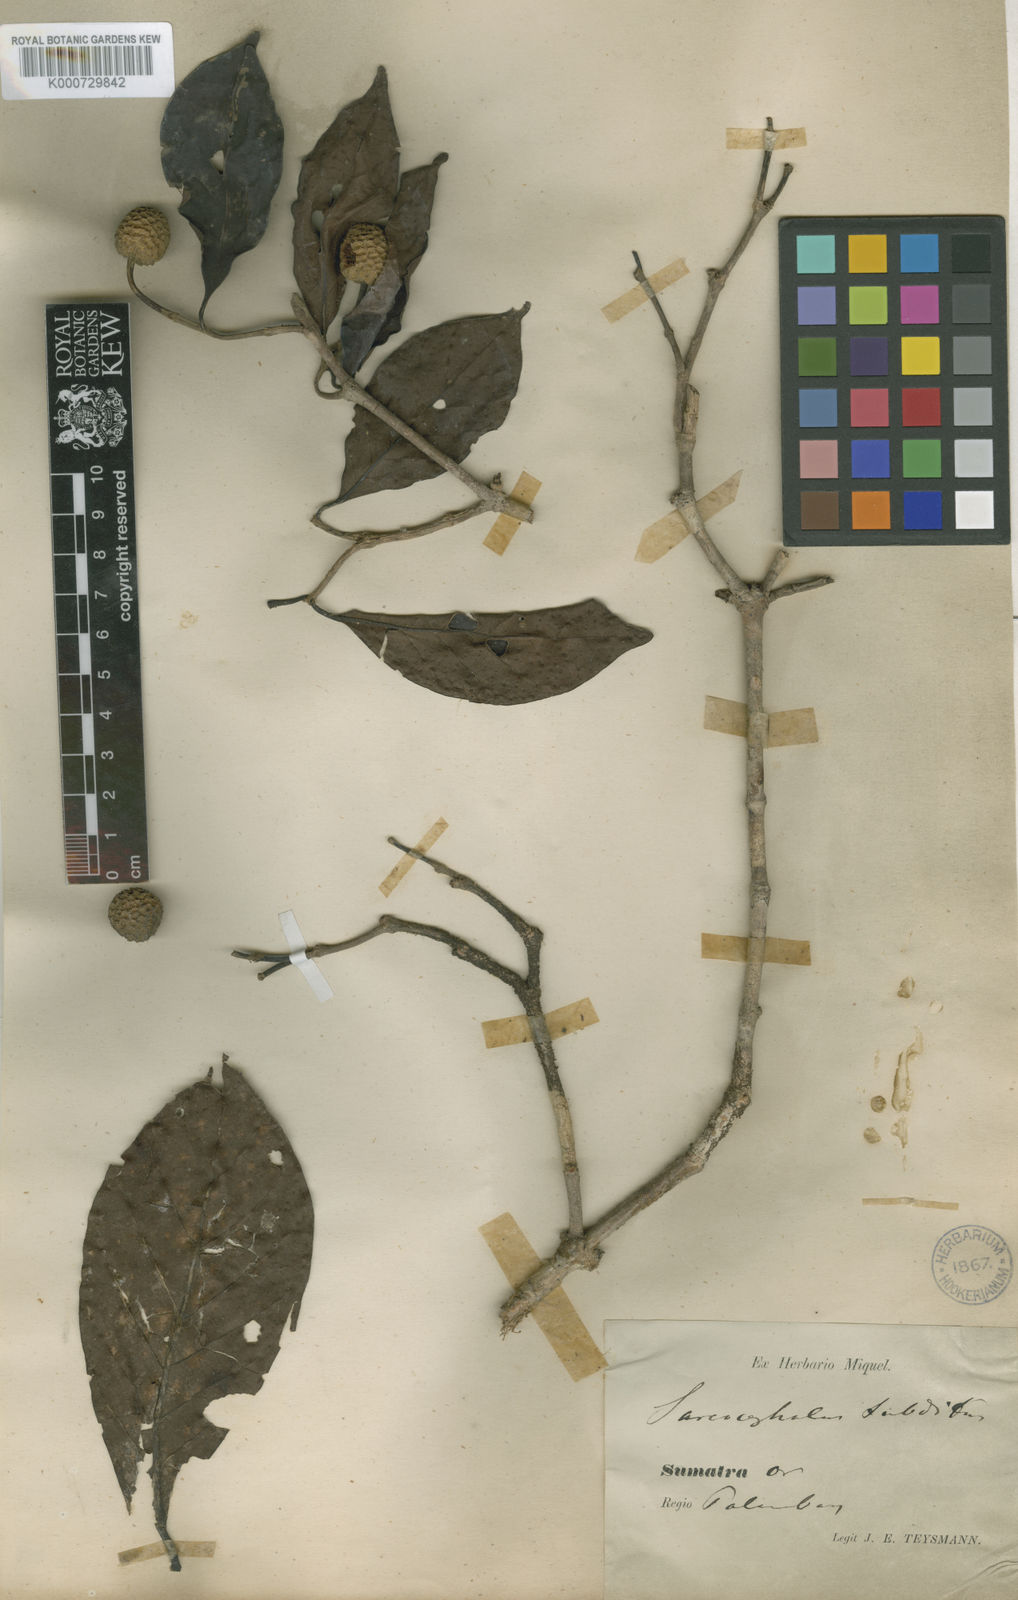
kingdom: Plantae
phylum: Tracheophyta
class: Magnoliopsida
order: Gentianales
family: Rubiaceae
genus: Nauclea
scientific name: Nauclea subdita
